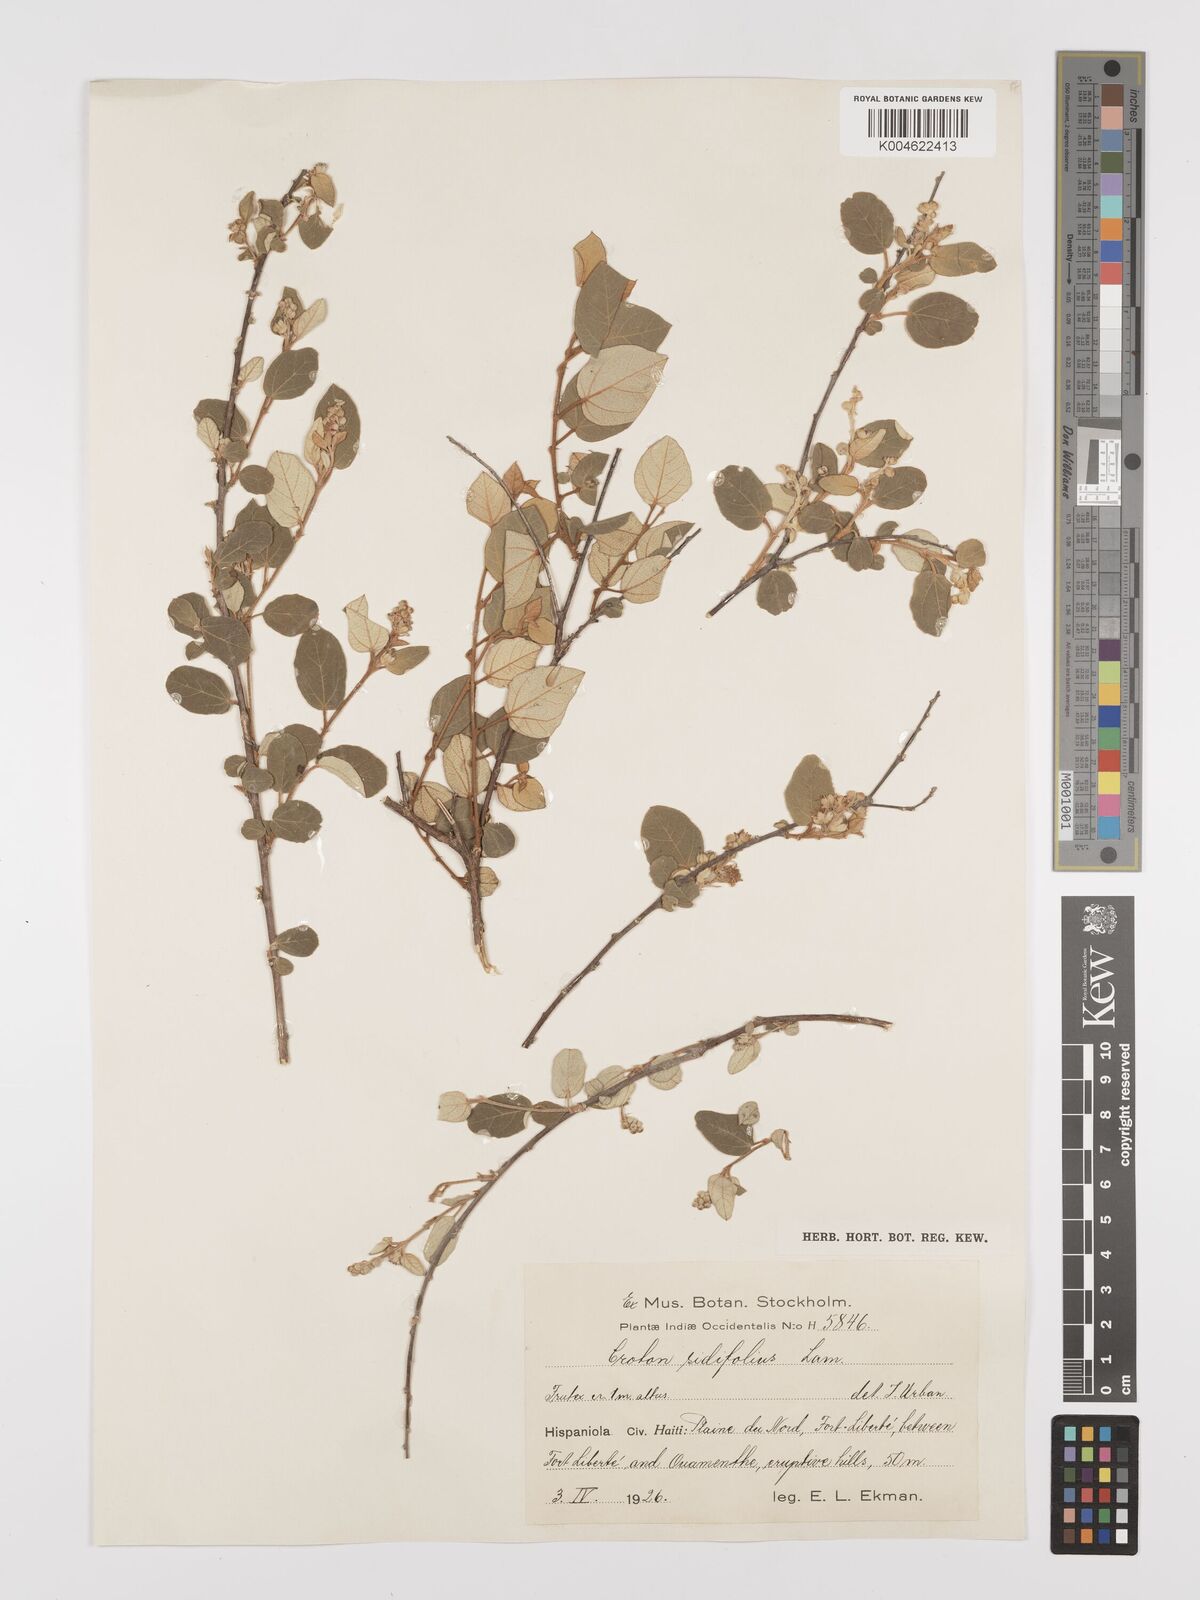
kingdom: Plantae
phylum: Tracheophyta
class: Magnoliopsida
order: Malpighiales
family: Euphorbiaceae
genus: Croton
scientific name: Croton sidifolius
